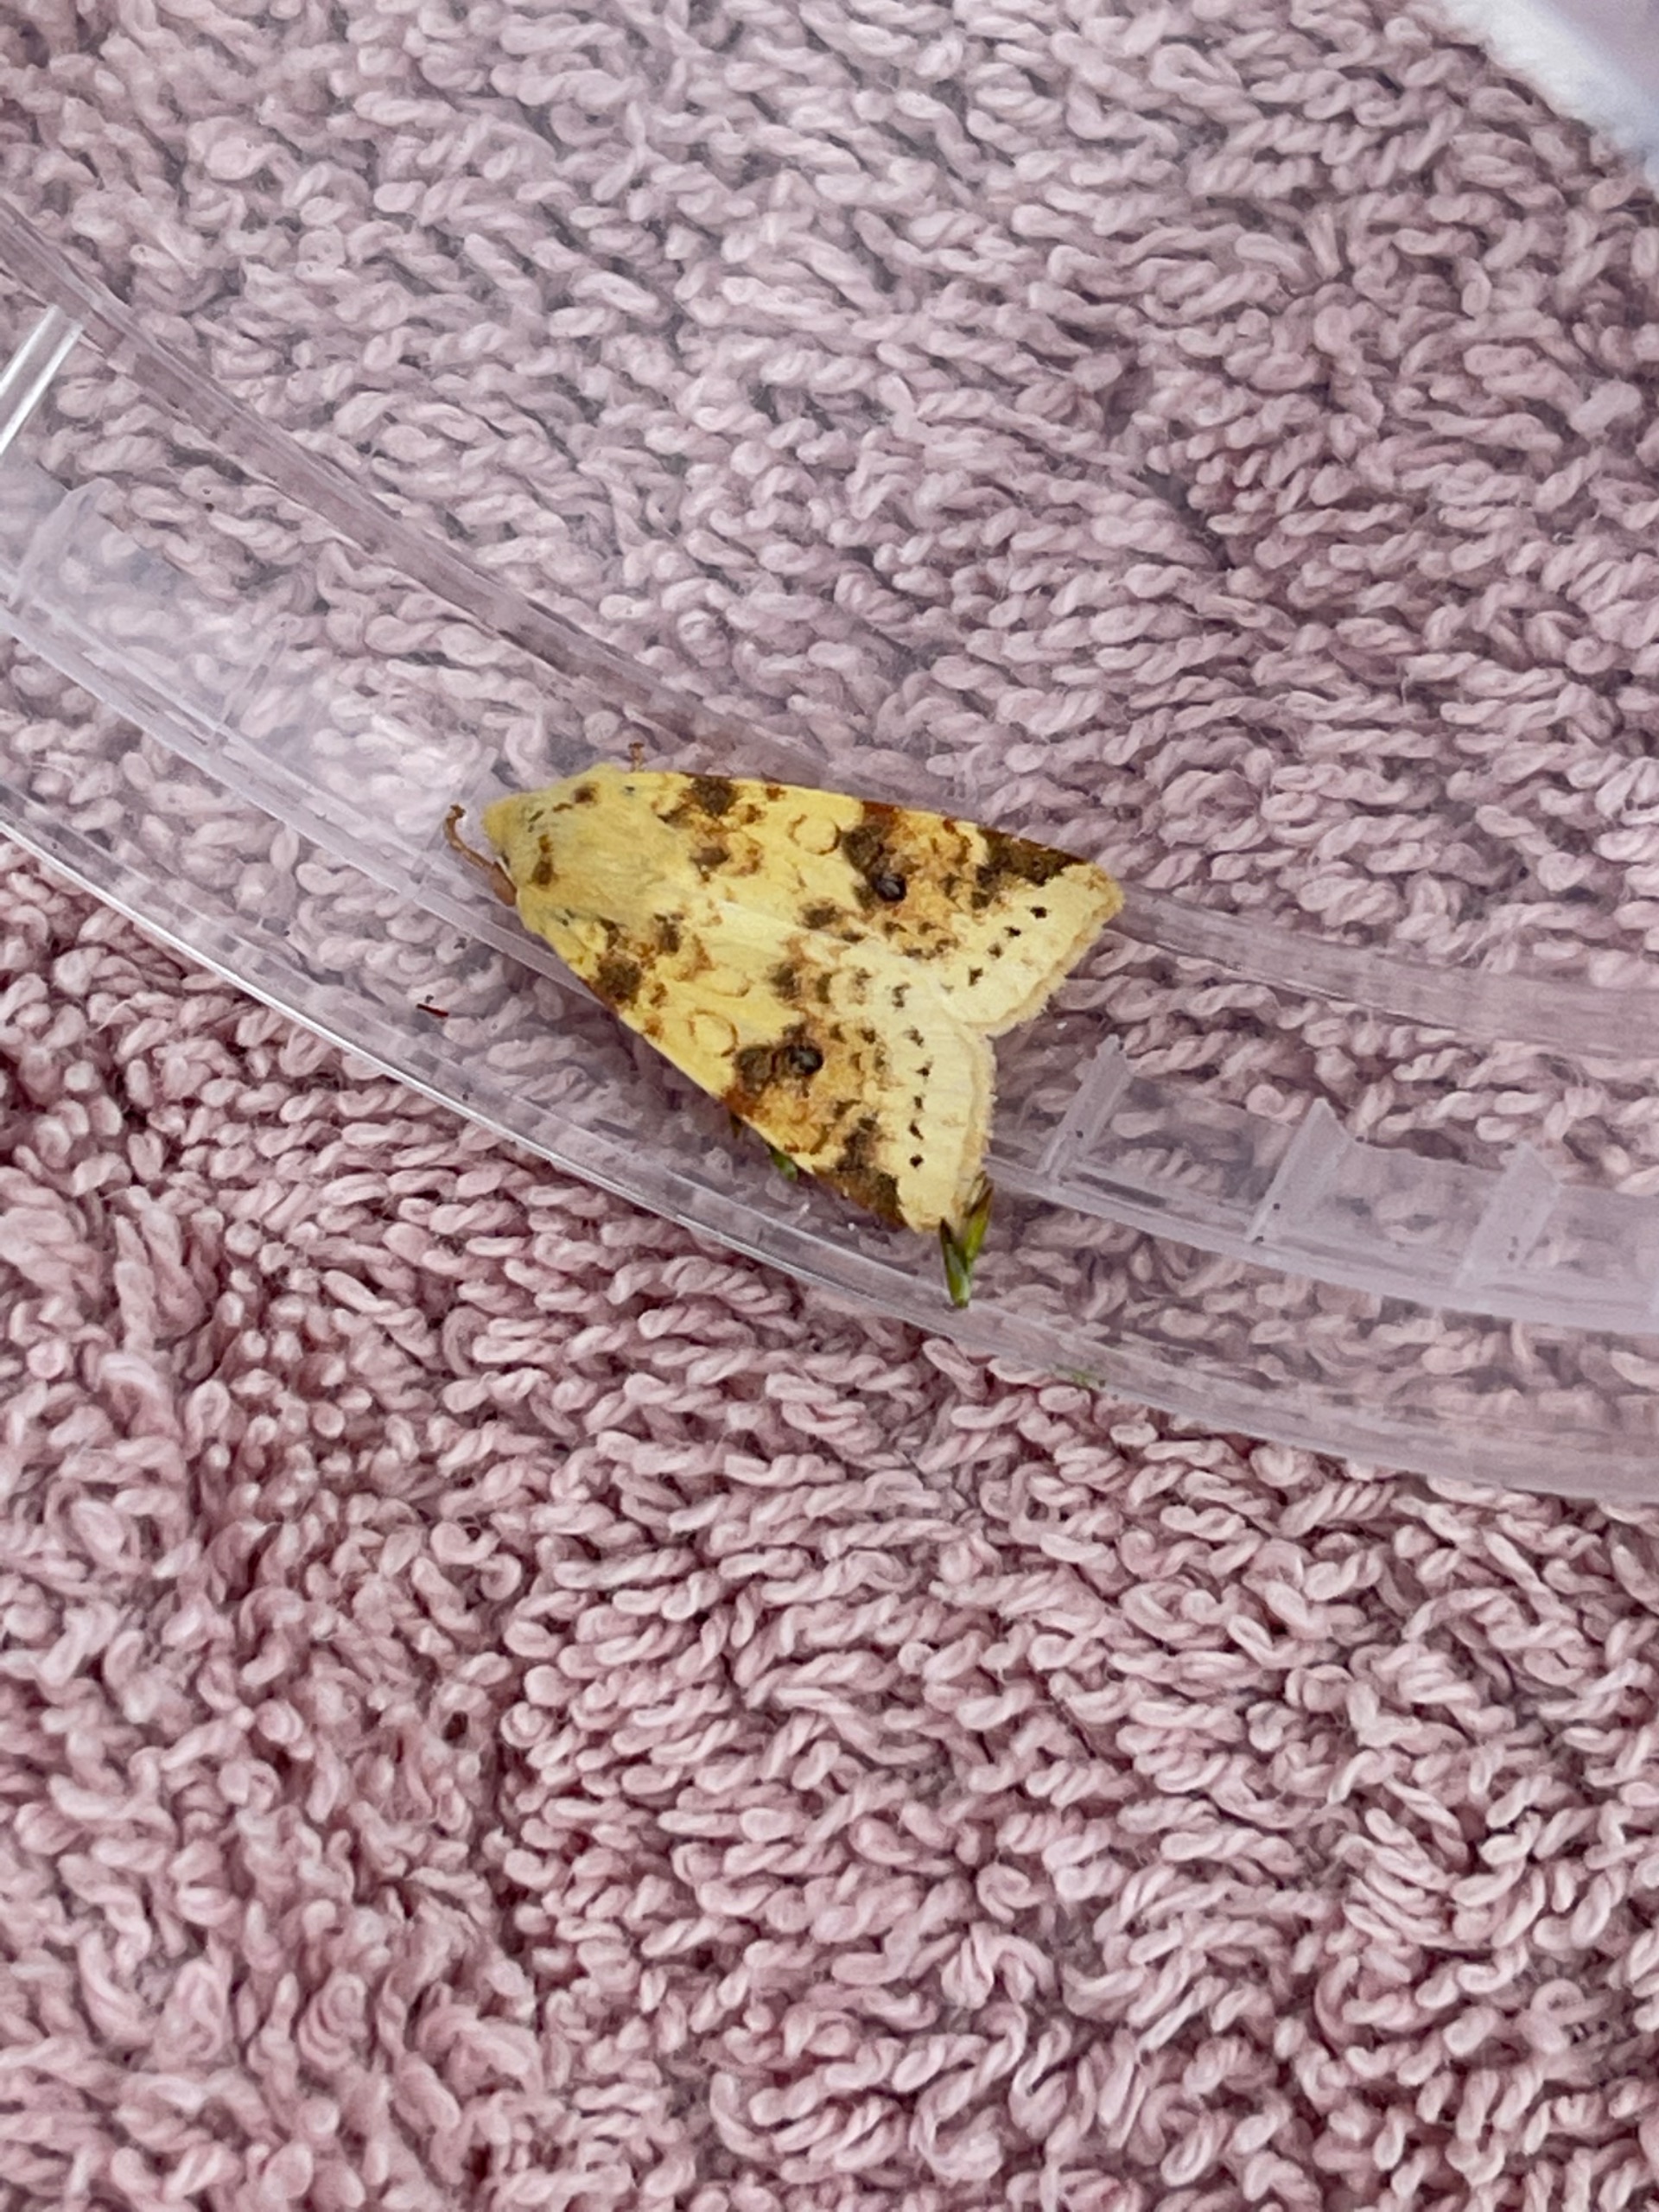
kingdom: Animalia
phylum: Arthropoda
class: Insecta
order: Lepidoptera
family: Noctuidae
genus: Xanthia
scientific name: Xanthia Cirrhia icteritia
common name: Brombær-guldugle
